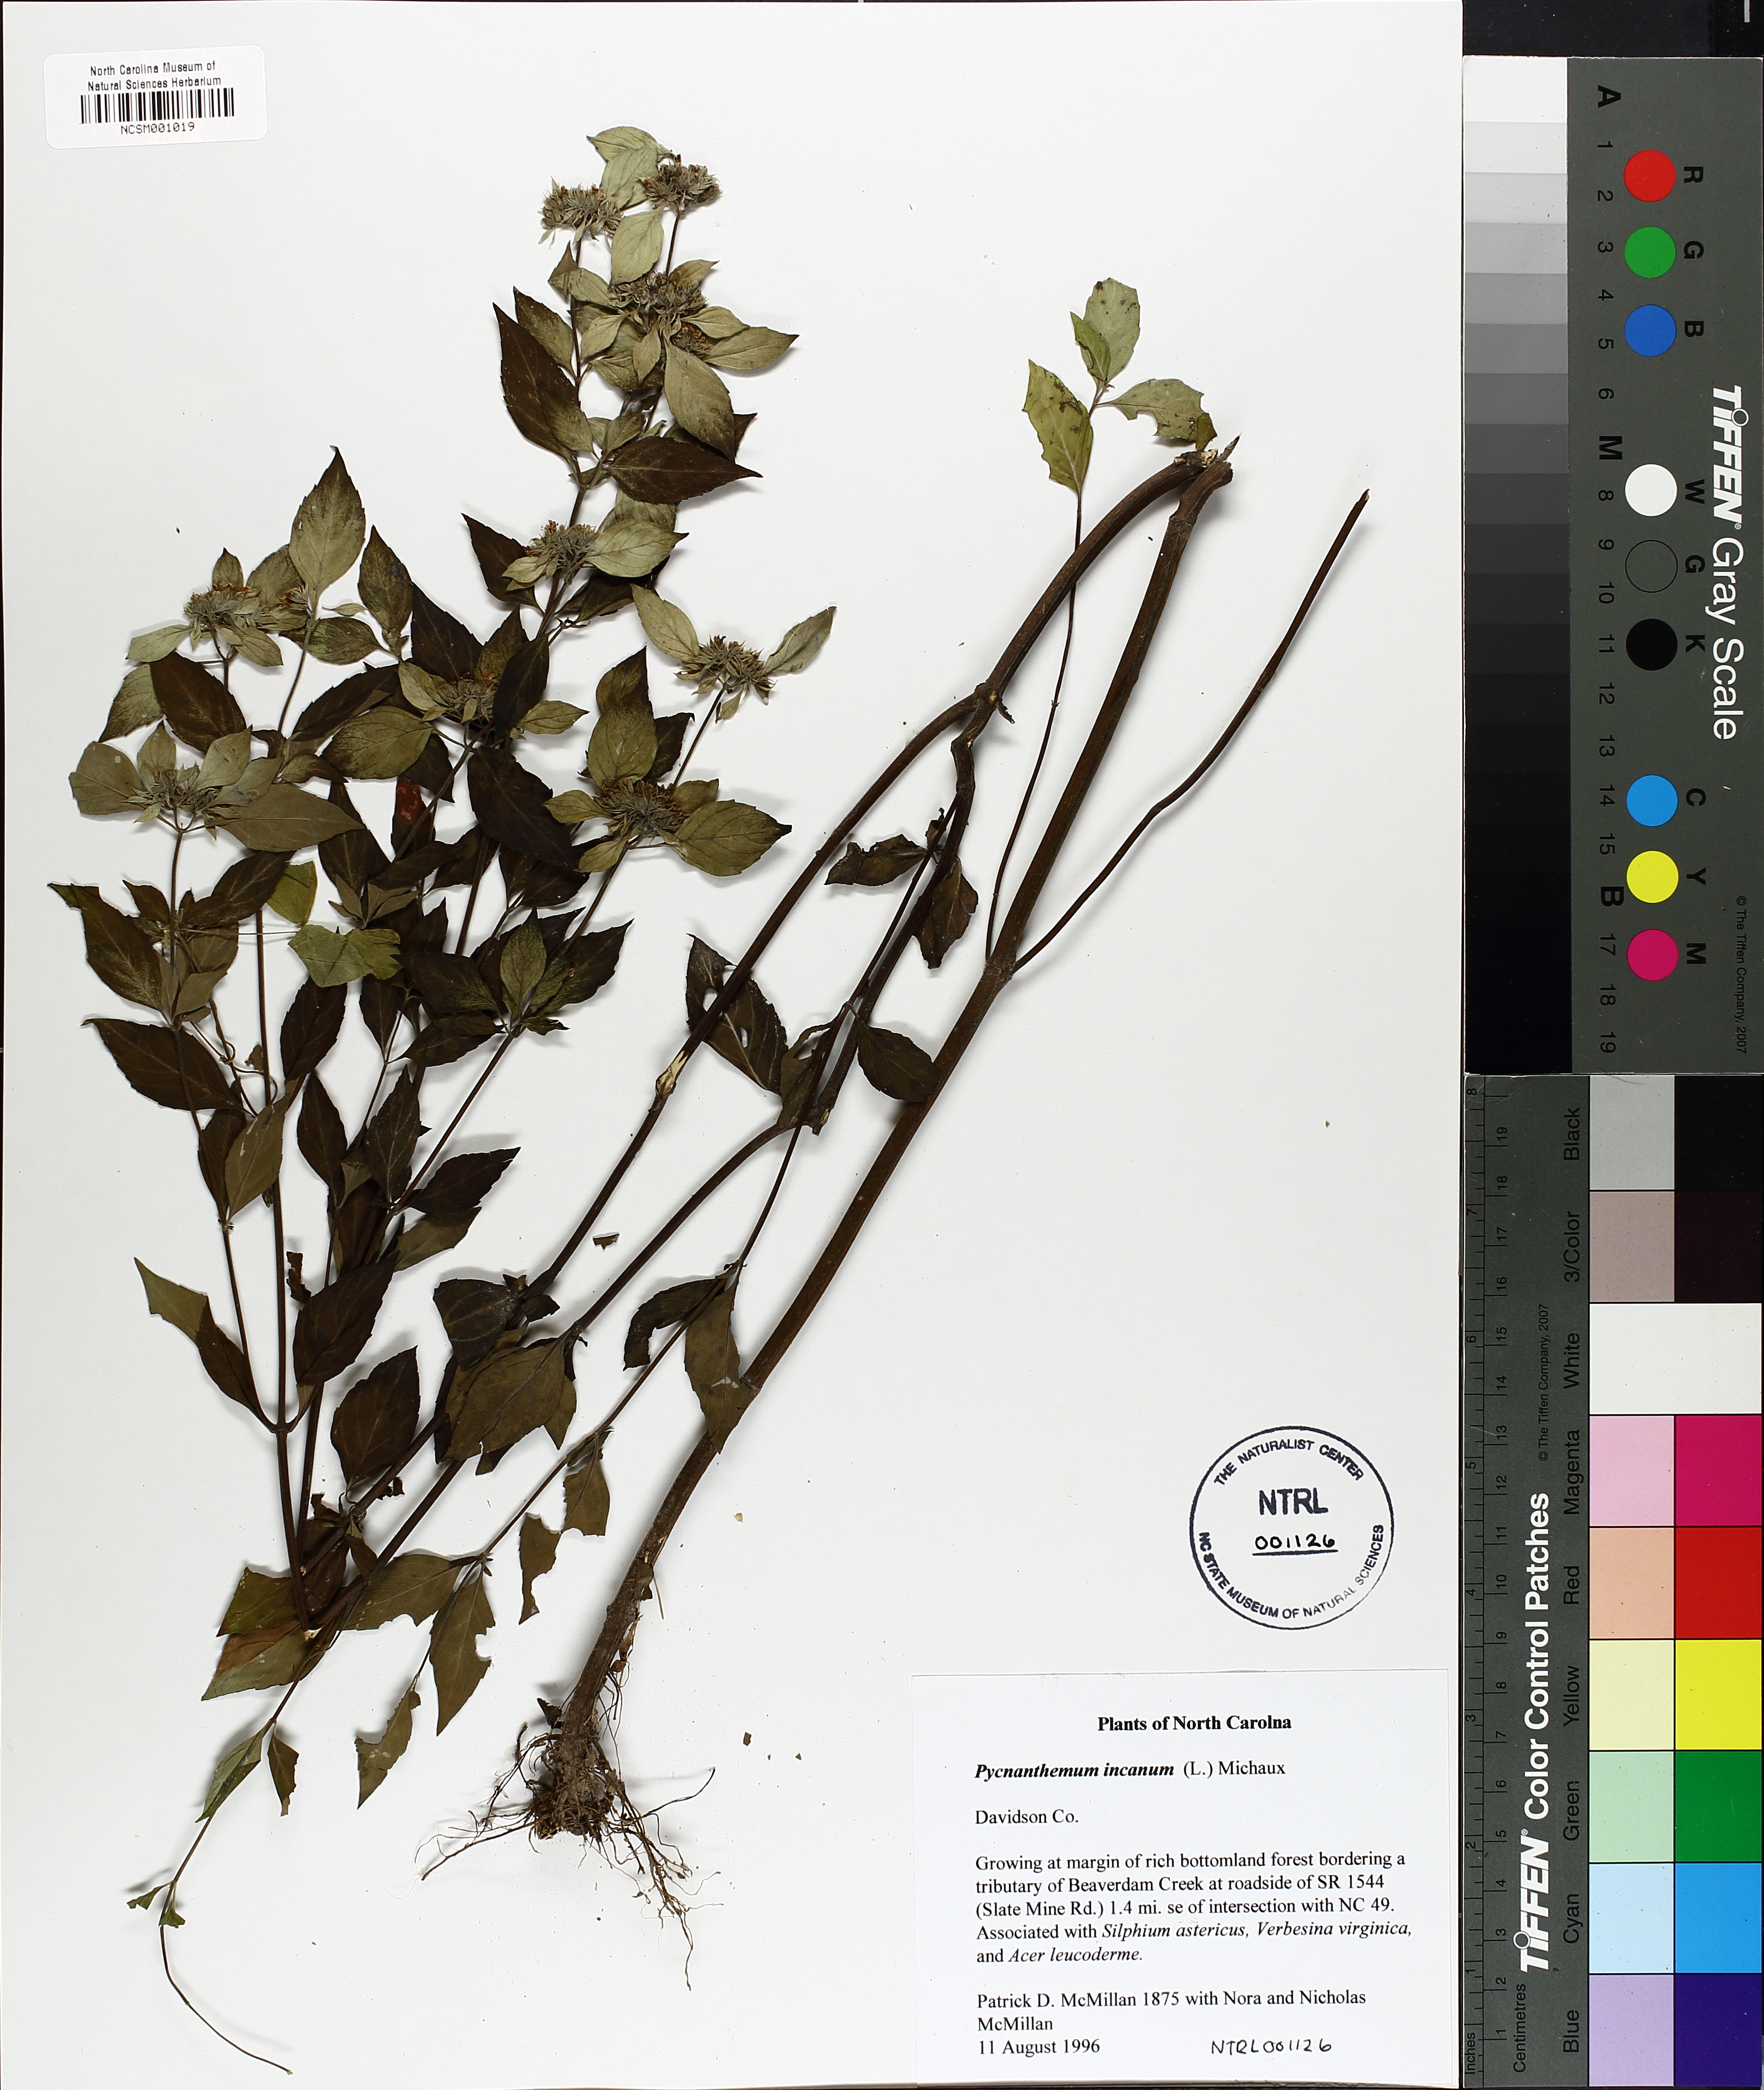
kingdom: Plantae
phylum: Tracheophyta
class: Magnoliopsida
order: Lamiales
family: Lamiaceae
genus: Pycnanthemum
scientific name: Pycnanthemum incanum
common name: Hoary mountain-mint
